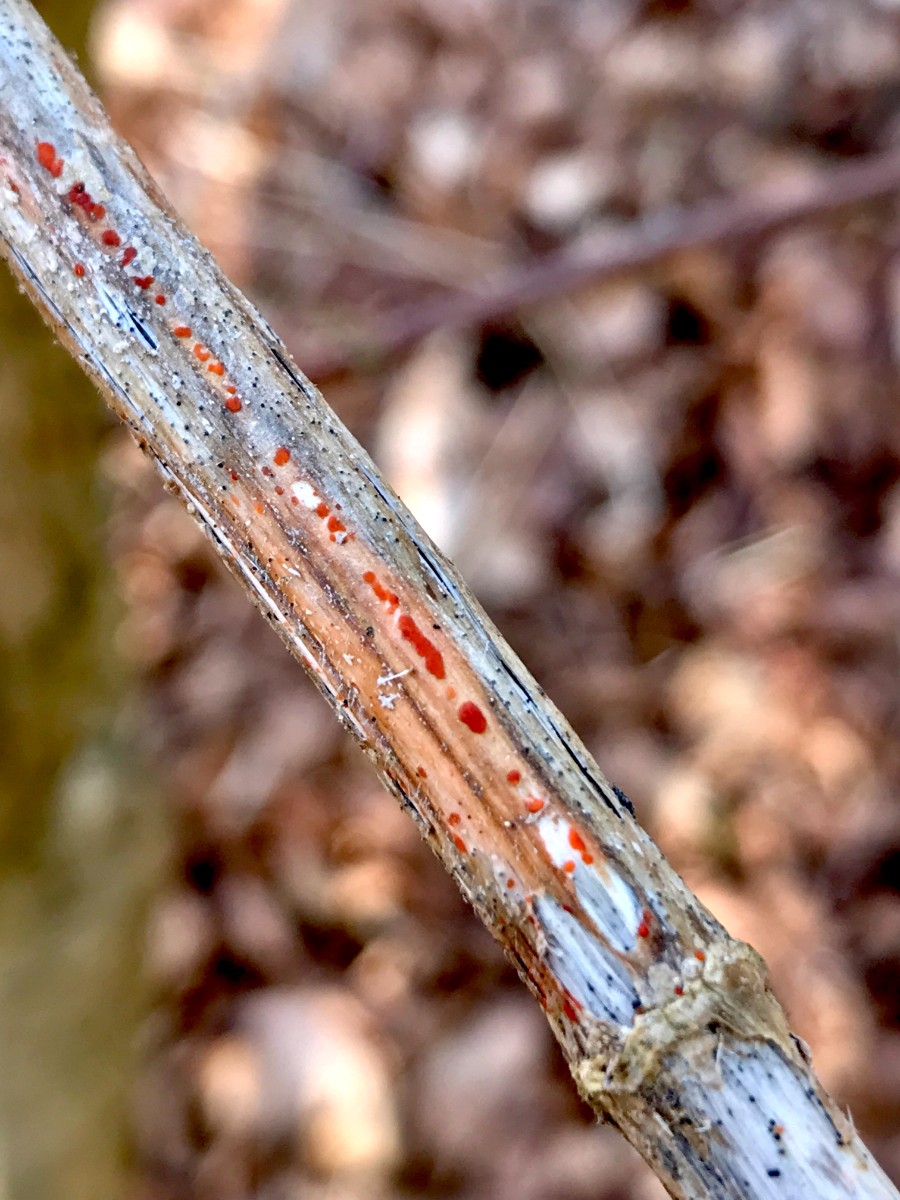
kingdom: Fungi
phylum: Ascomycota
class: Leotiomycetes
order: Helotiales
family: Calloriaceae
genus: Calloria
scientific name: Calloria urticae
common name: nælde-orangeskive
